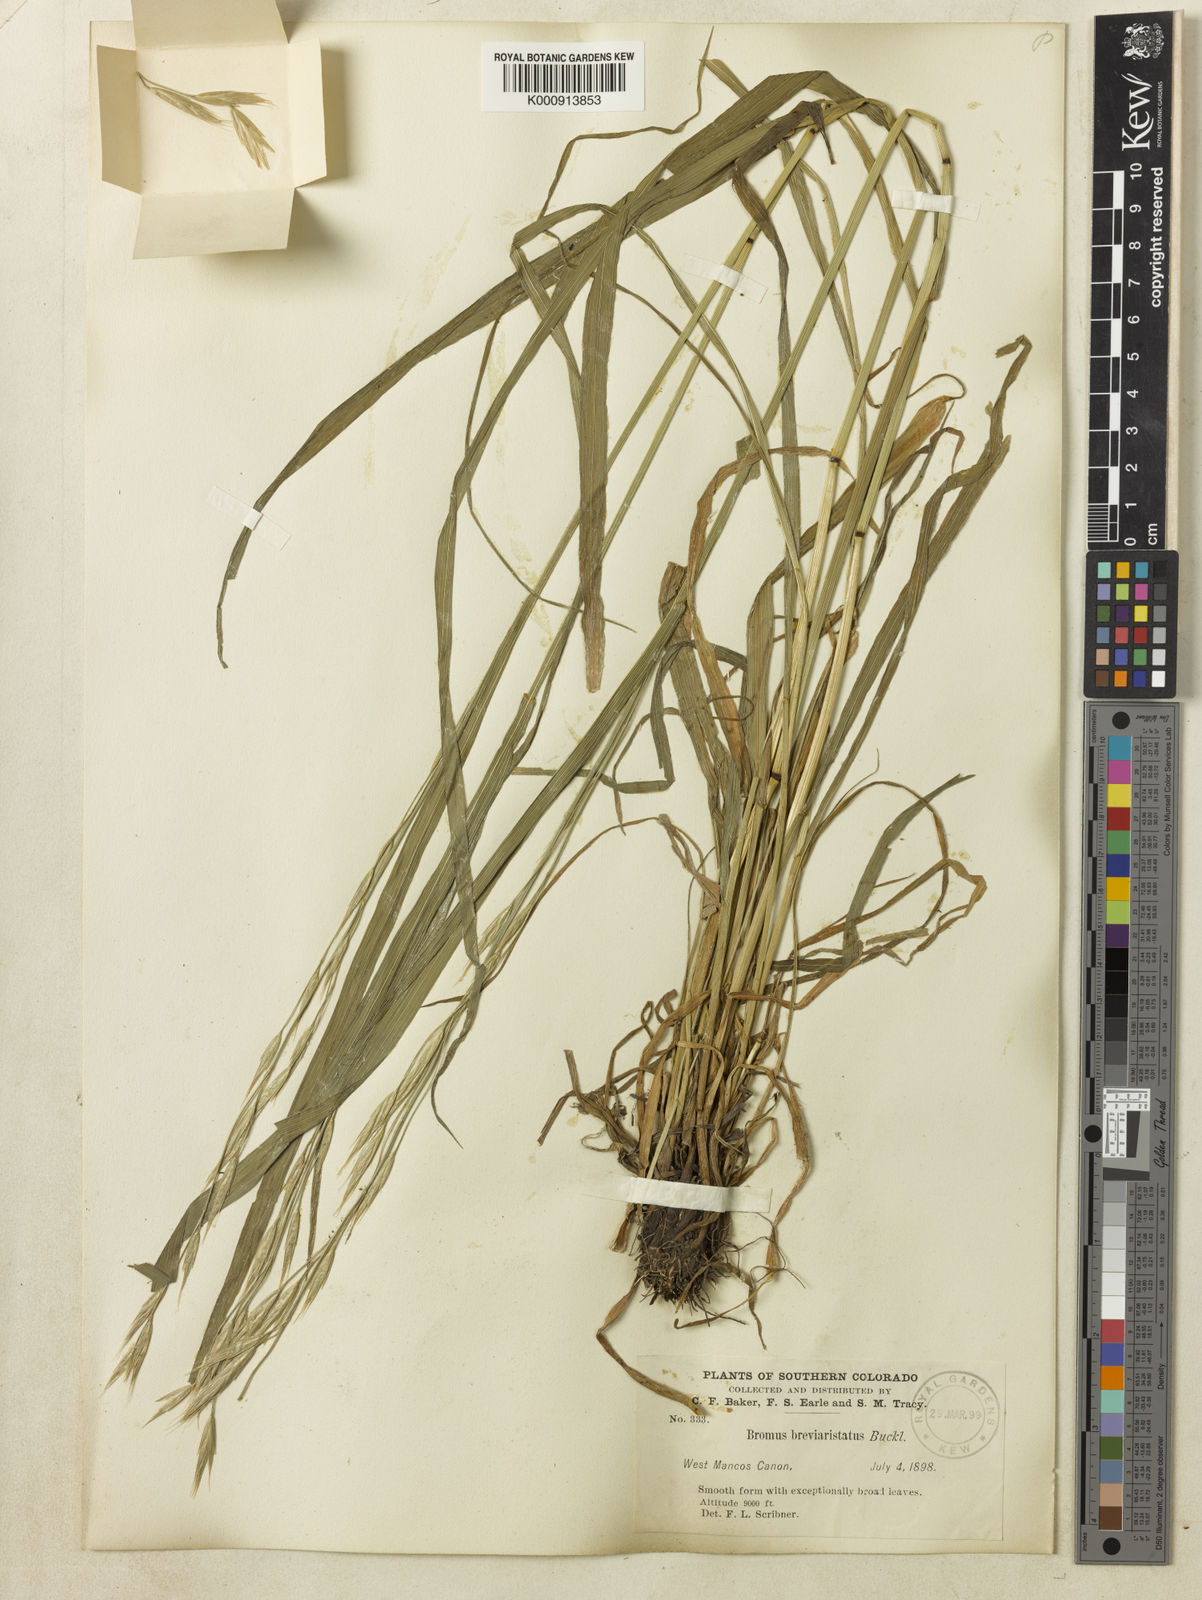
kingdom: Plantae
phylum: Tracheophyta
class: Liliopsida
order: Poales
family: Poaceae
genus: Bromus
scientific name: Bromus marginatus
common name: Western brome
